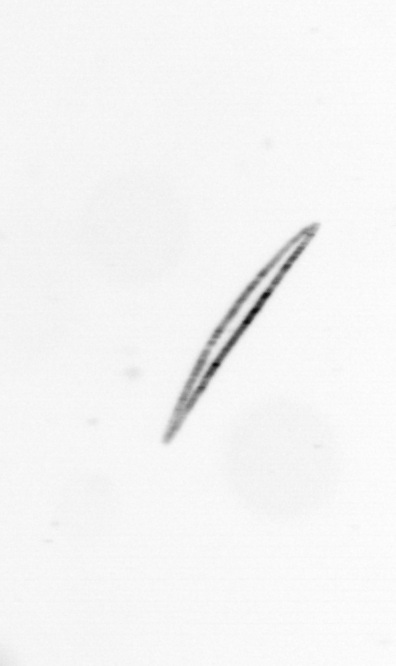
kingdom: Chromista
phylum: Ochrophyta
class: Bacillariophyceae
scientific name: Bacillariophyceae
